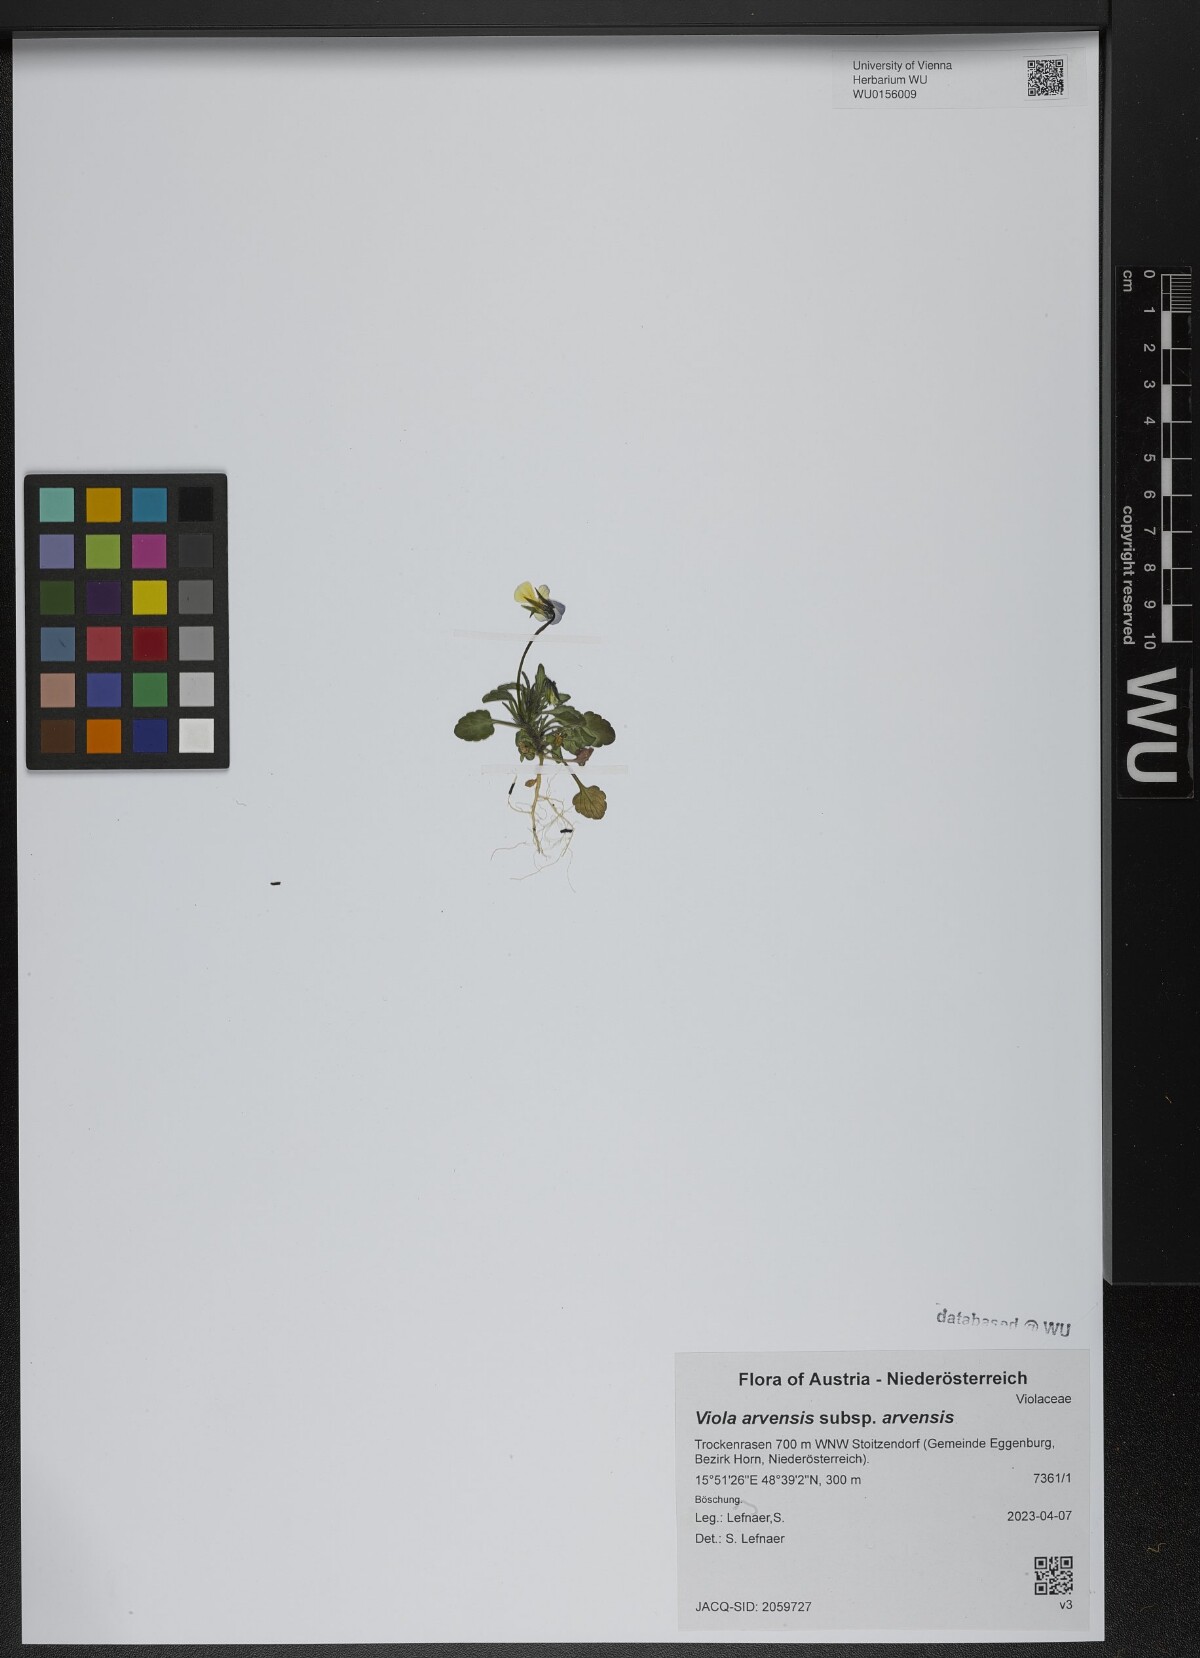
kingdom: Plantae
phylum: Tracheophyta
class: Magnoliopsida
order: Malpighiales
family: Violaceae
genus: Viola
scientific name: Viola arvensis
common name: Field pansy
